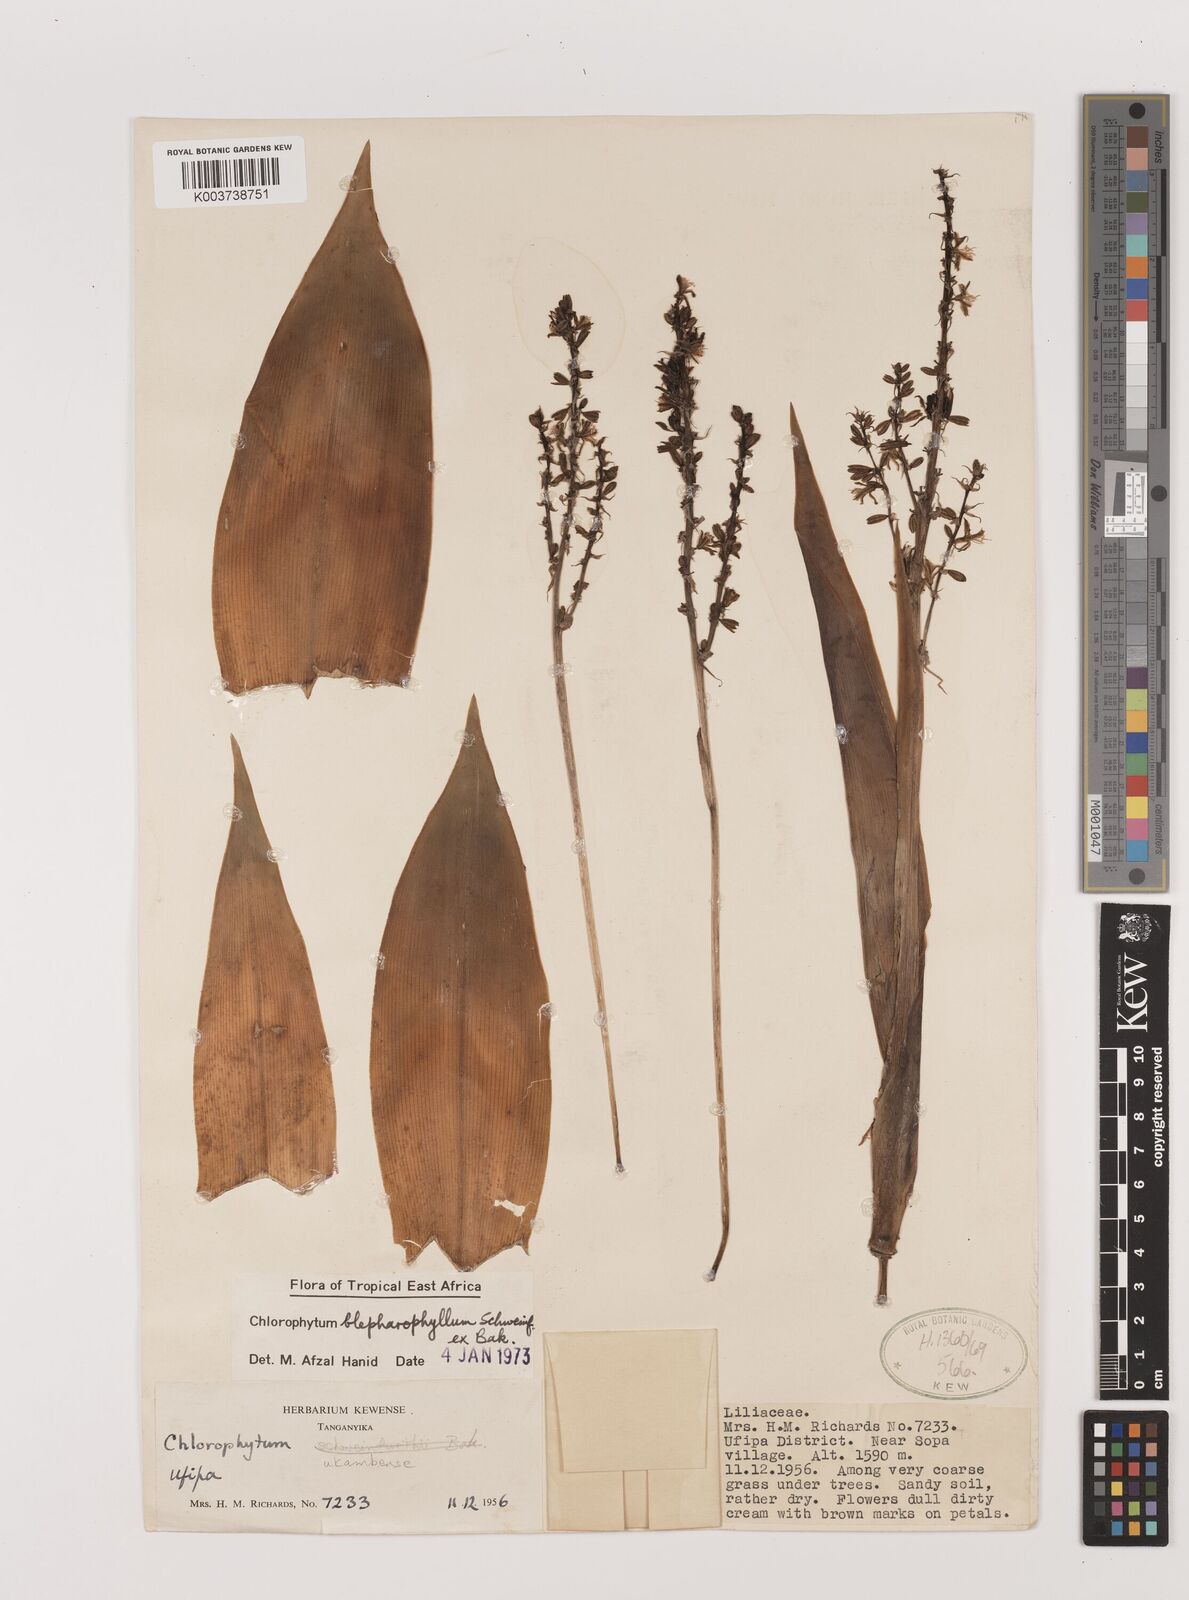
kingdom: Plantae
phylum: Tracheophyta
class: Liliopsida
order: Asparagales
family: Asparagaceae
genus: Chlorophytum
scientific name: Chlorophytum blepharophyllum
